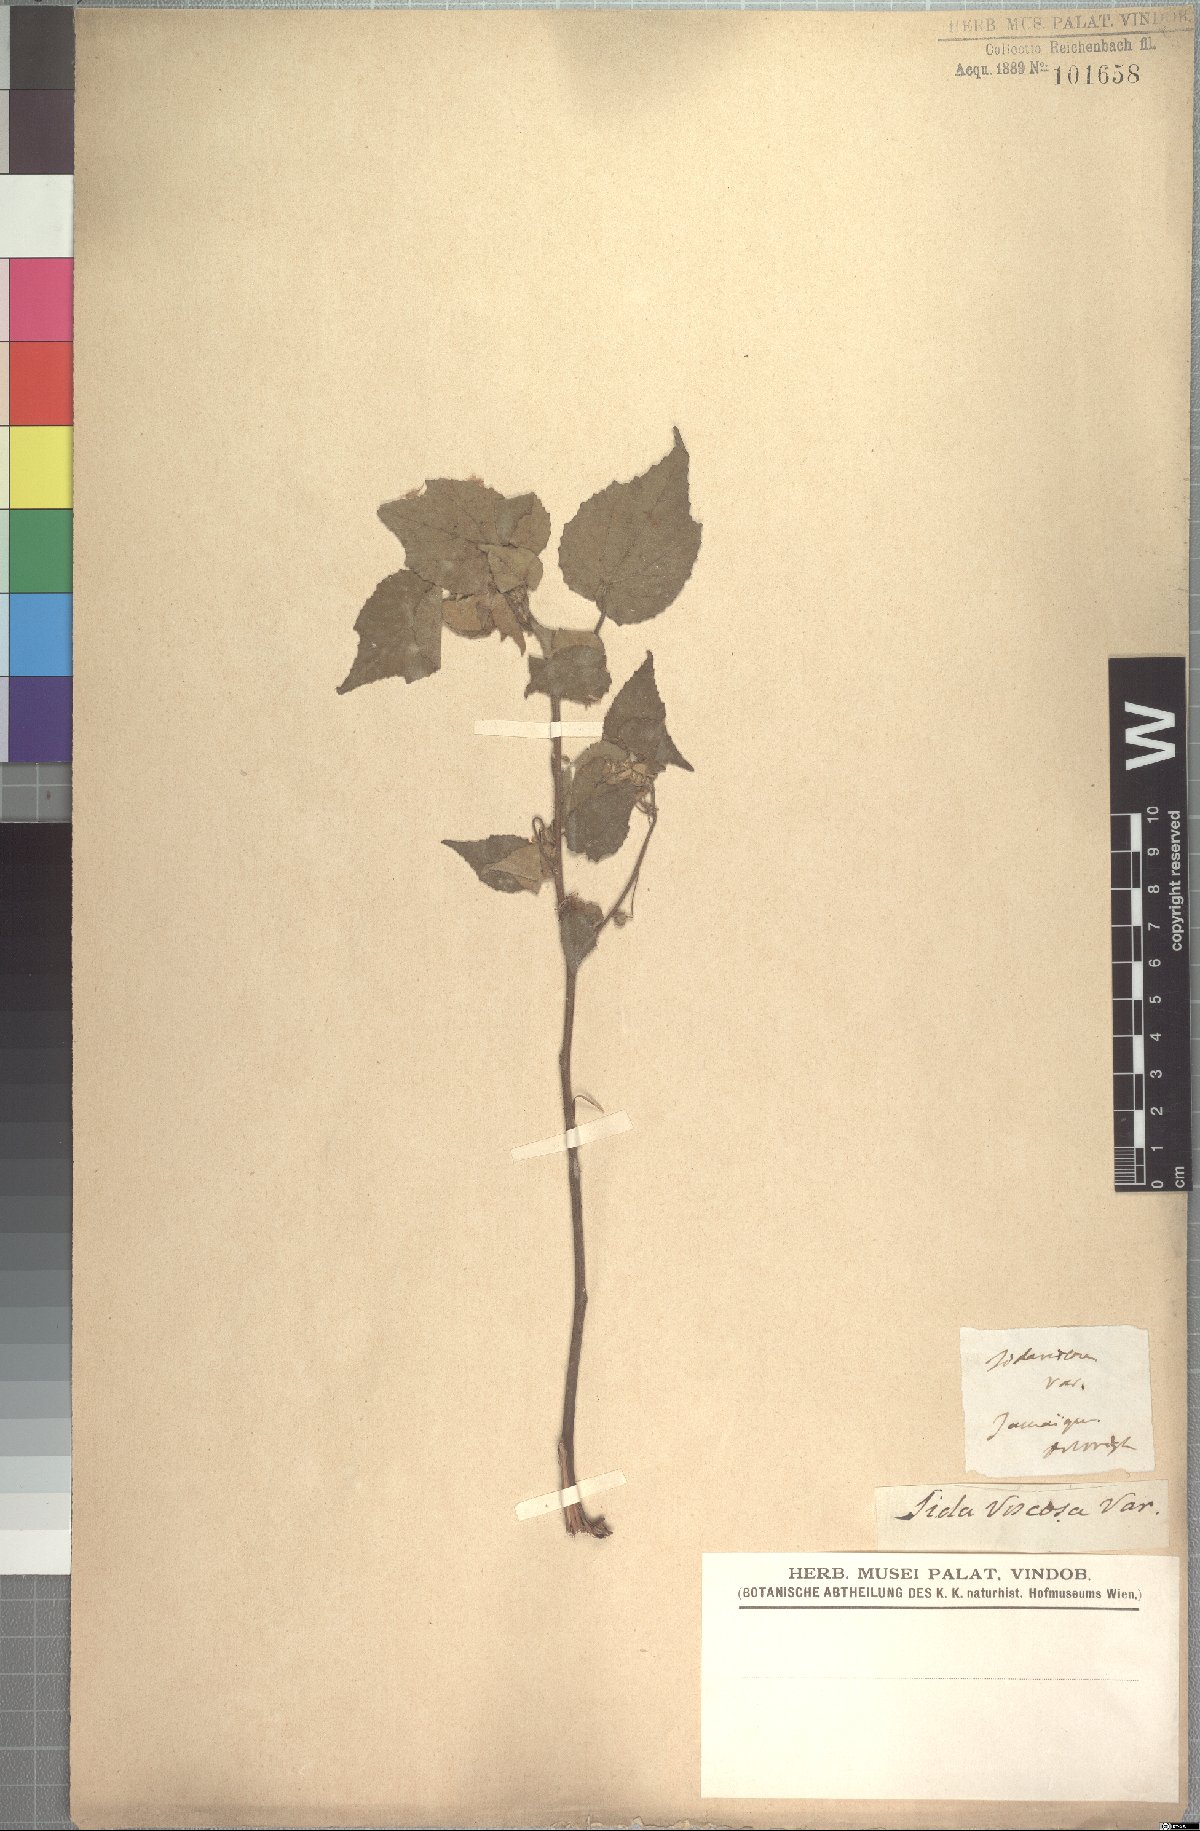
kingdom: Plantae
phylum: Tracheophyta
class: Magnoliopsida
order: Malvales
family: Malvaceae
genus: Abutilon
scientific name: Abutilon viscosum
